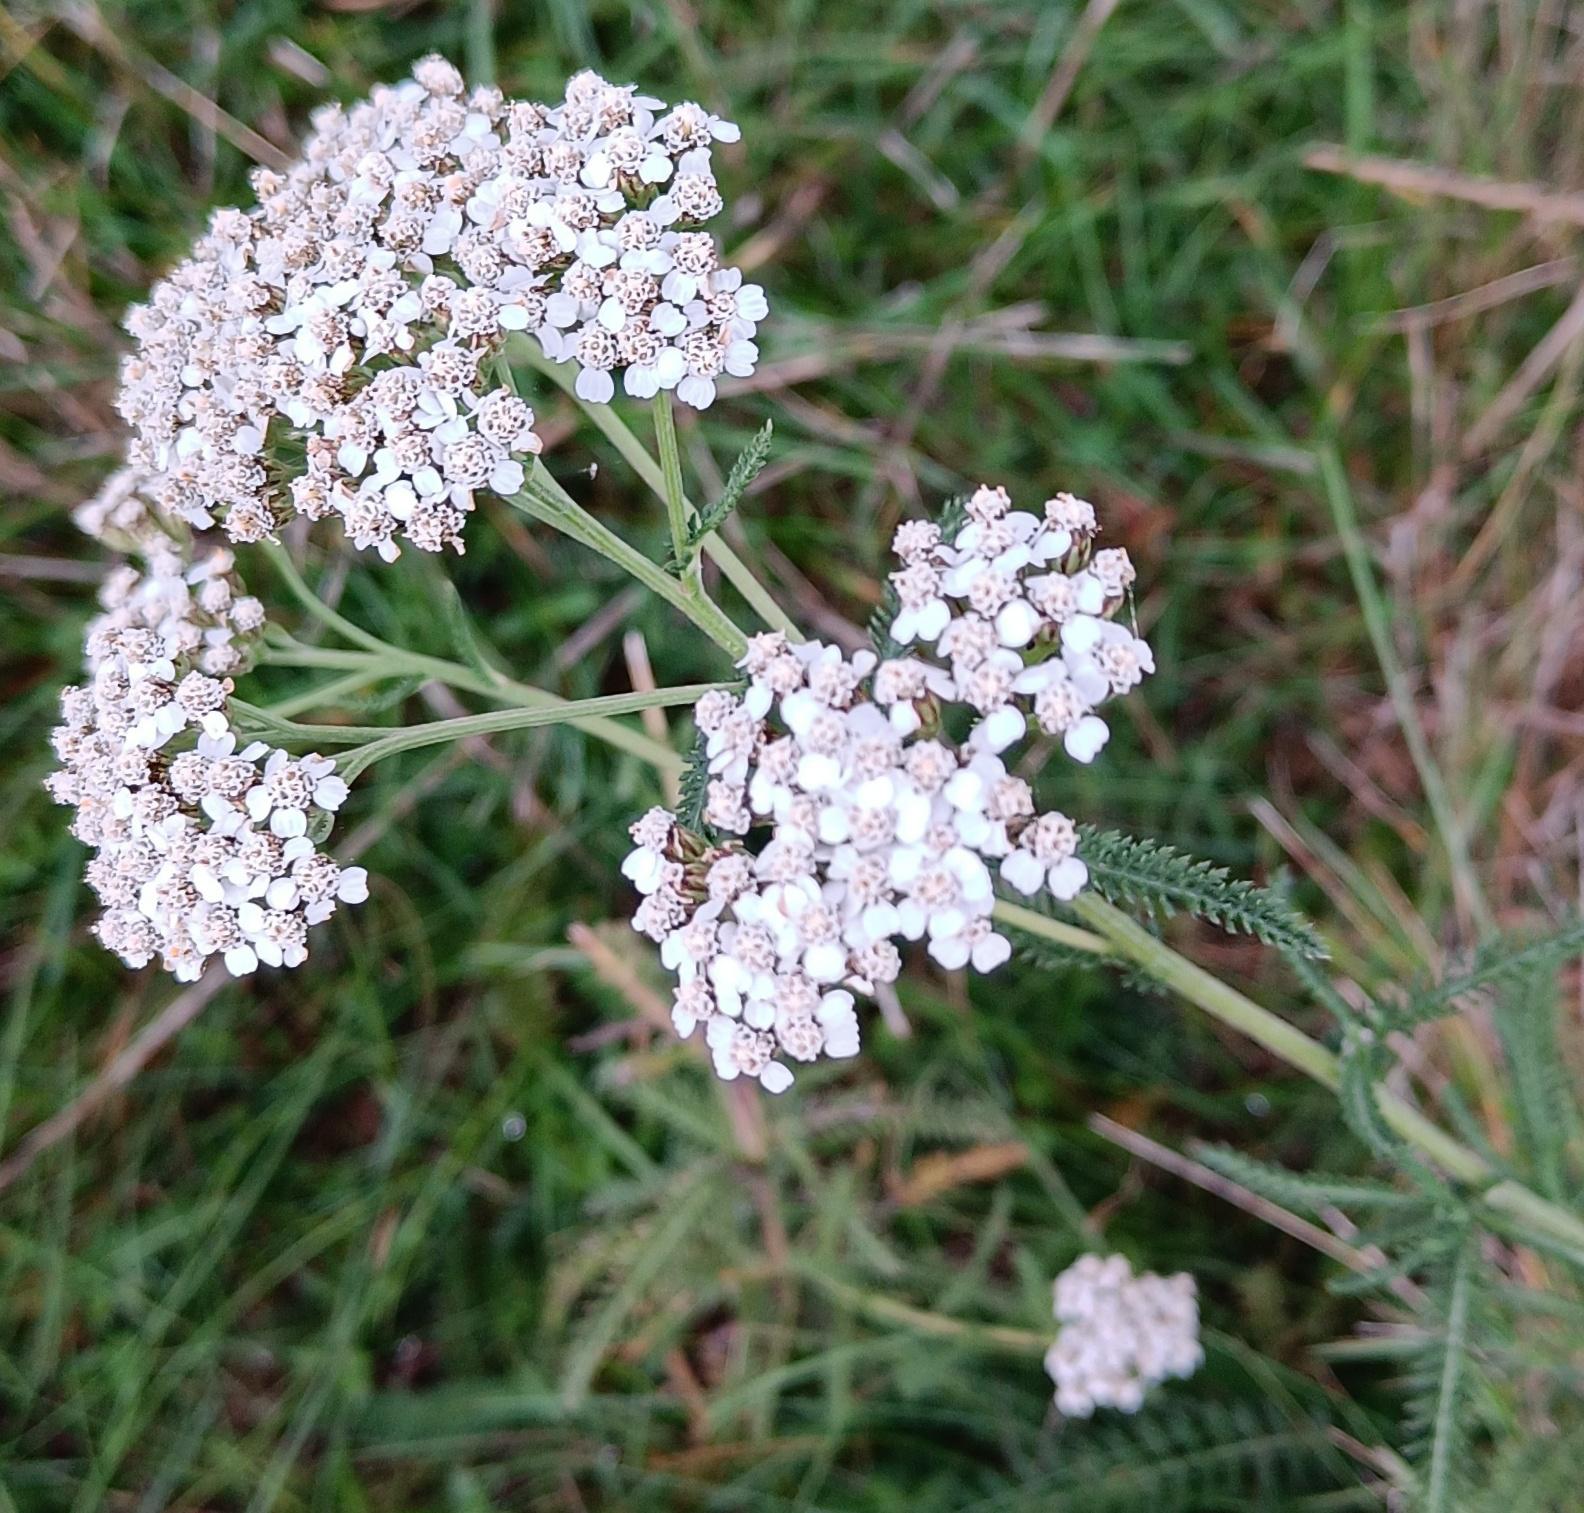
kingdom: Plantae
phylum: Tracheophyta
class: Magnoliopsida
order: Asterales
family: Asteraceae
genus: Achillea
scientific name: Achillea millefolium
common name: Almindelig røllike
